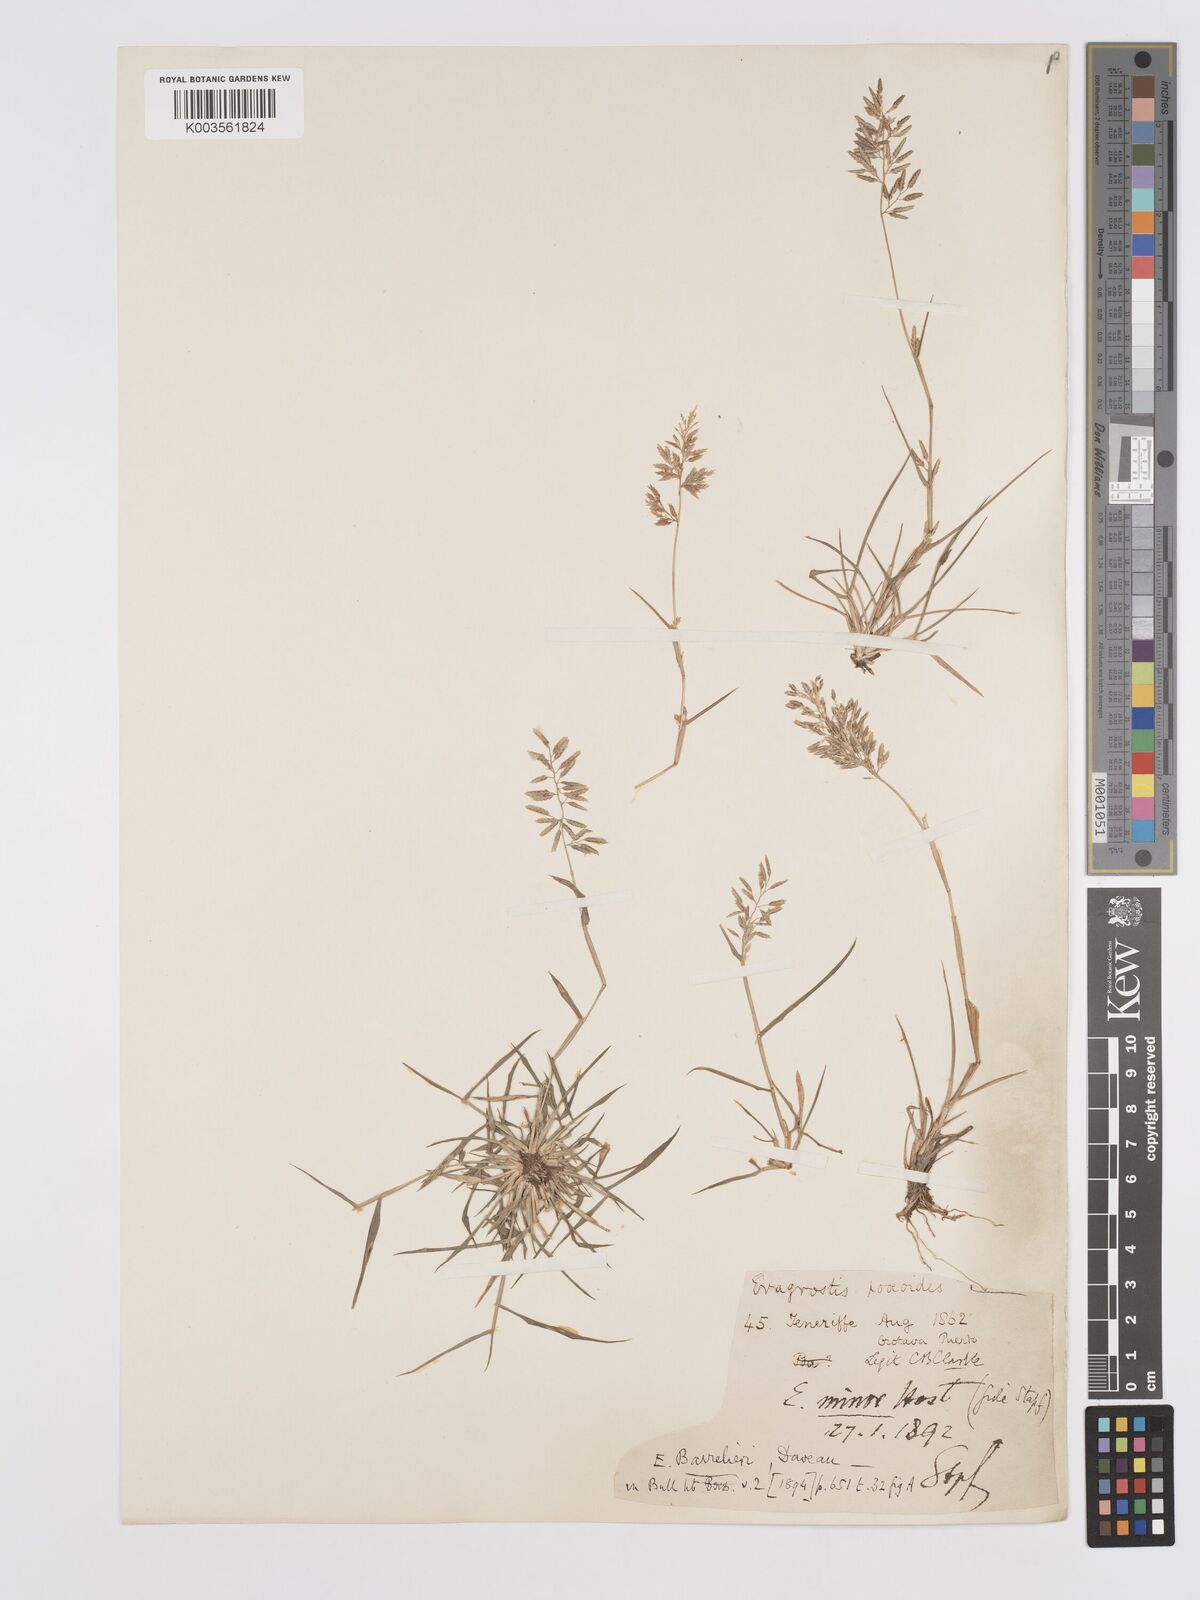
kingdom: Plantae
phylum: Tracheophyta
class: Liliopsida
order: Poales
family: Poaceae
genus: Eragrostis
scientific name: Eragrostis barrelieri
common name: Mediterranean lovegrass
